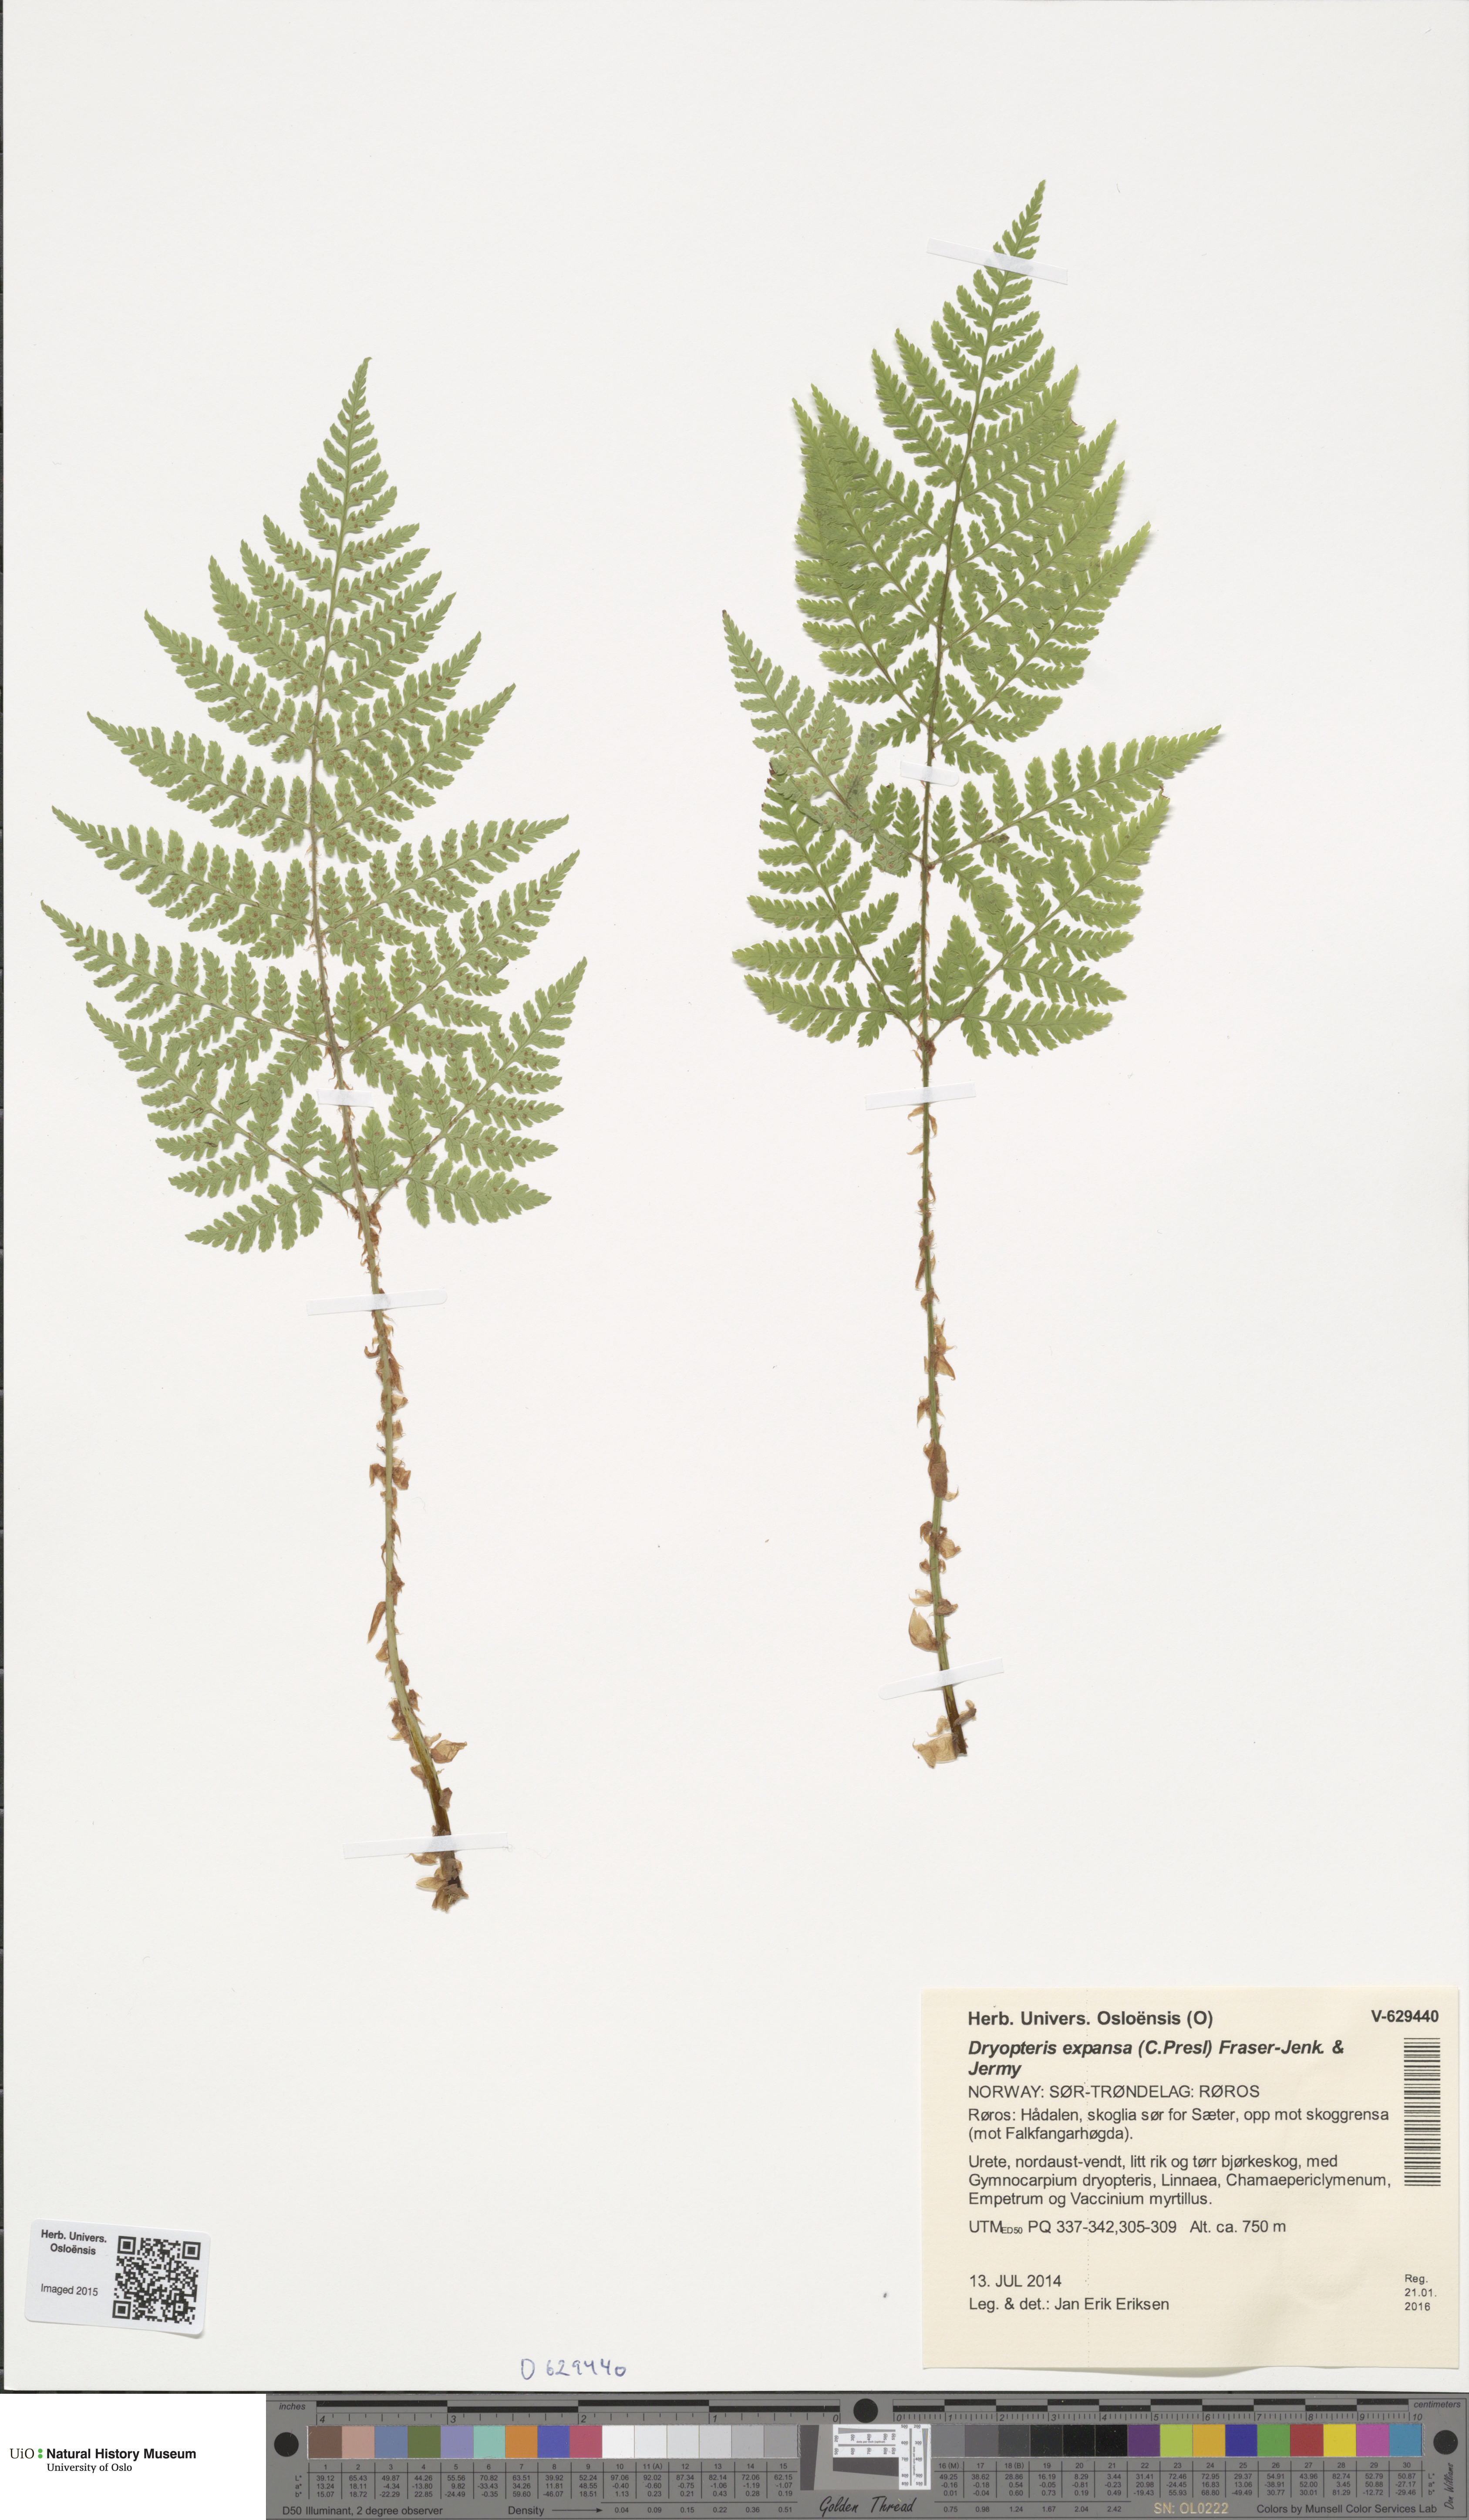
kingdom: Plantae
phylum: Tracheophyta
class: Polypodiopsida
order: Polypodiales
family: Dryopteridaceae
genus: Dryopteris
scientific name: Dryopteris expansa
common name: Northern buckler fern
